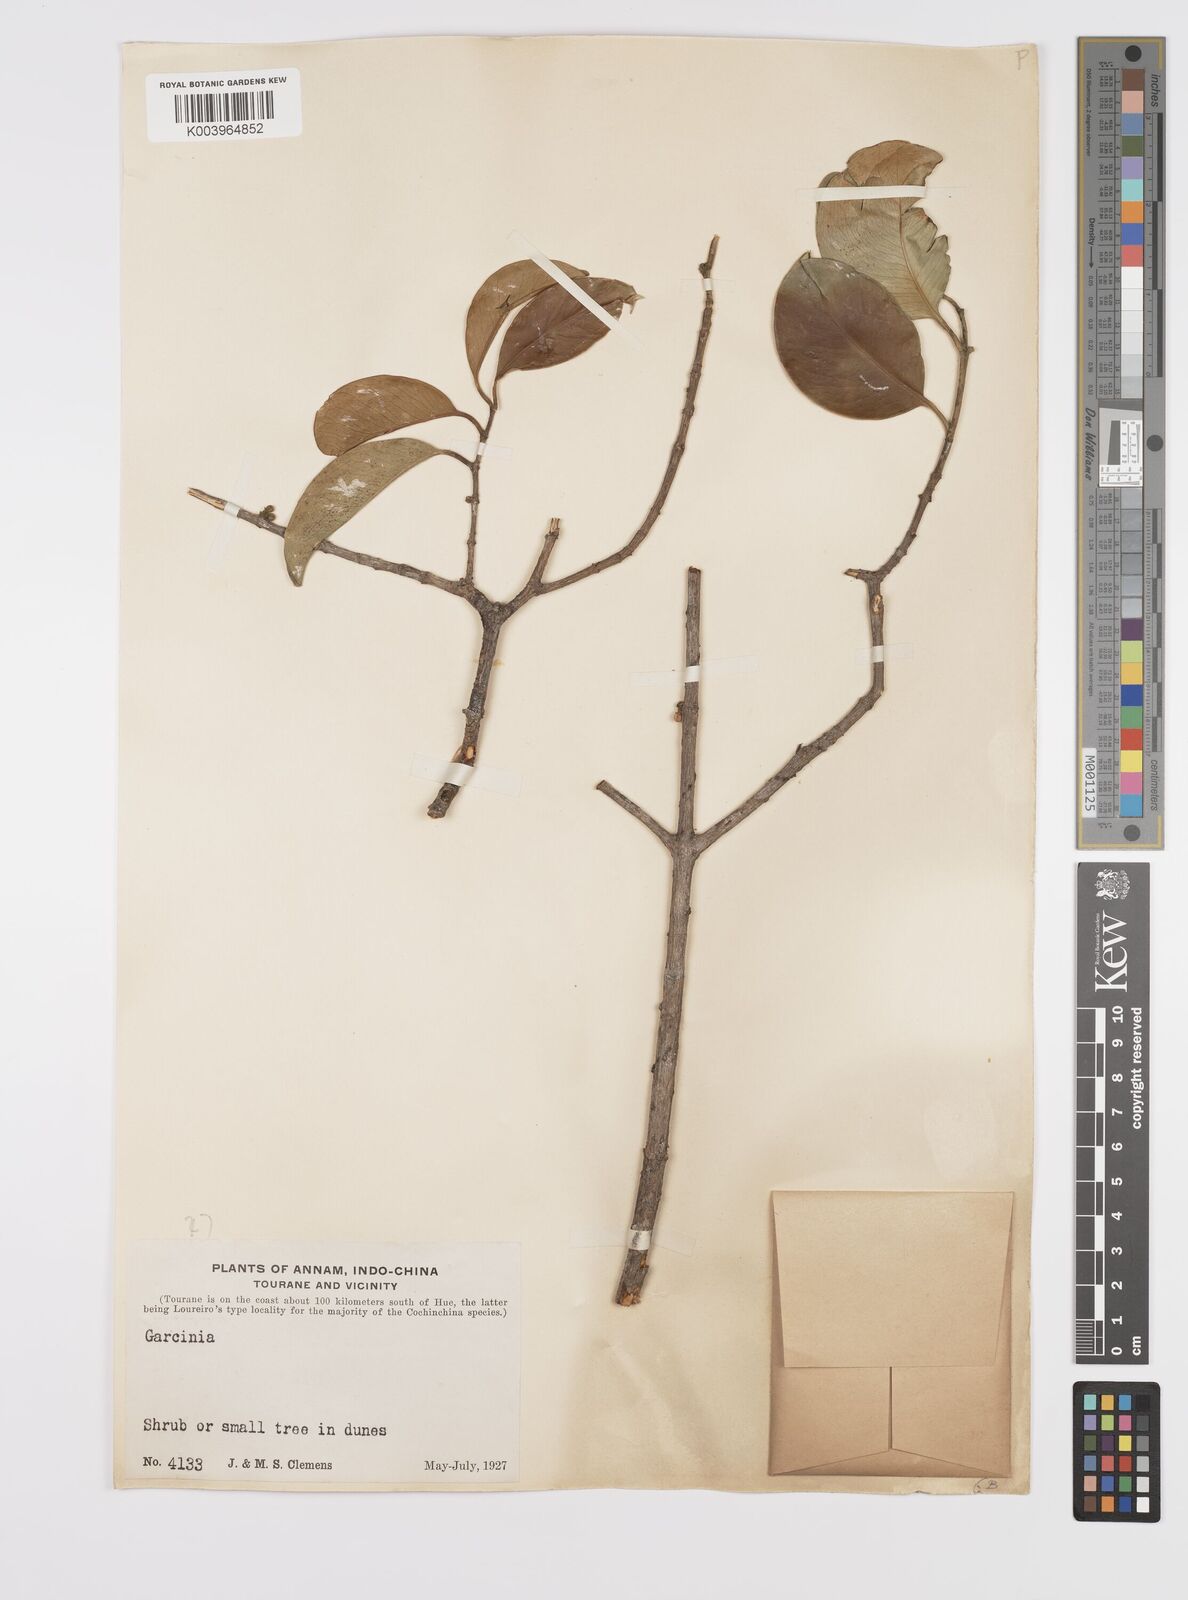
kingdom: Plantae
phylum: Tracheophyta
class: Magnoliopsida
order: Malpighiales
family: Clusiaceae
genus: Garcinia
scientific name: Garcinia
